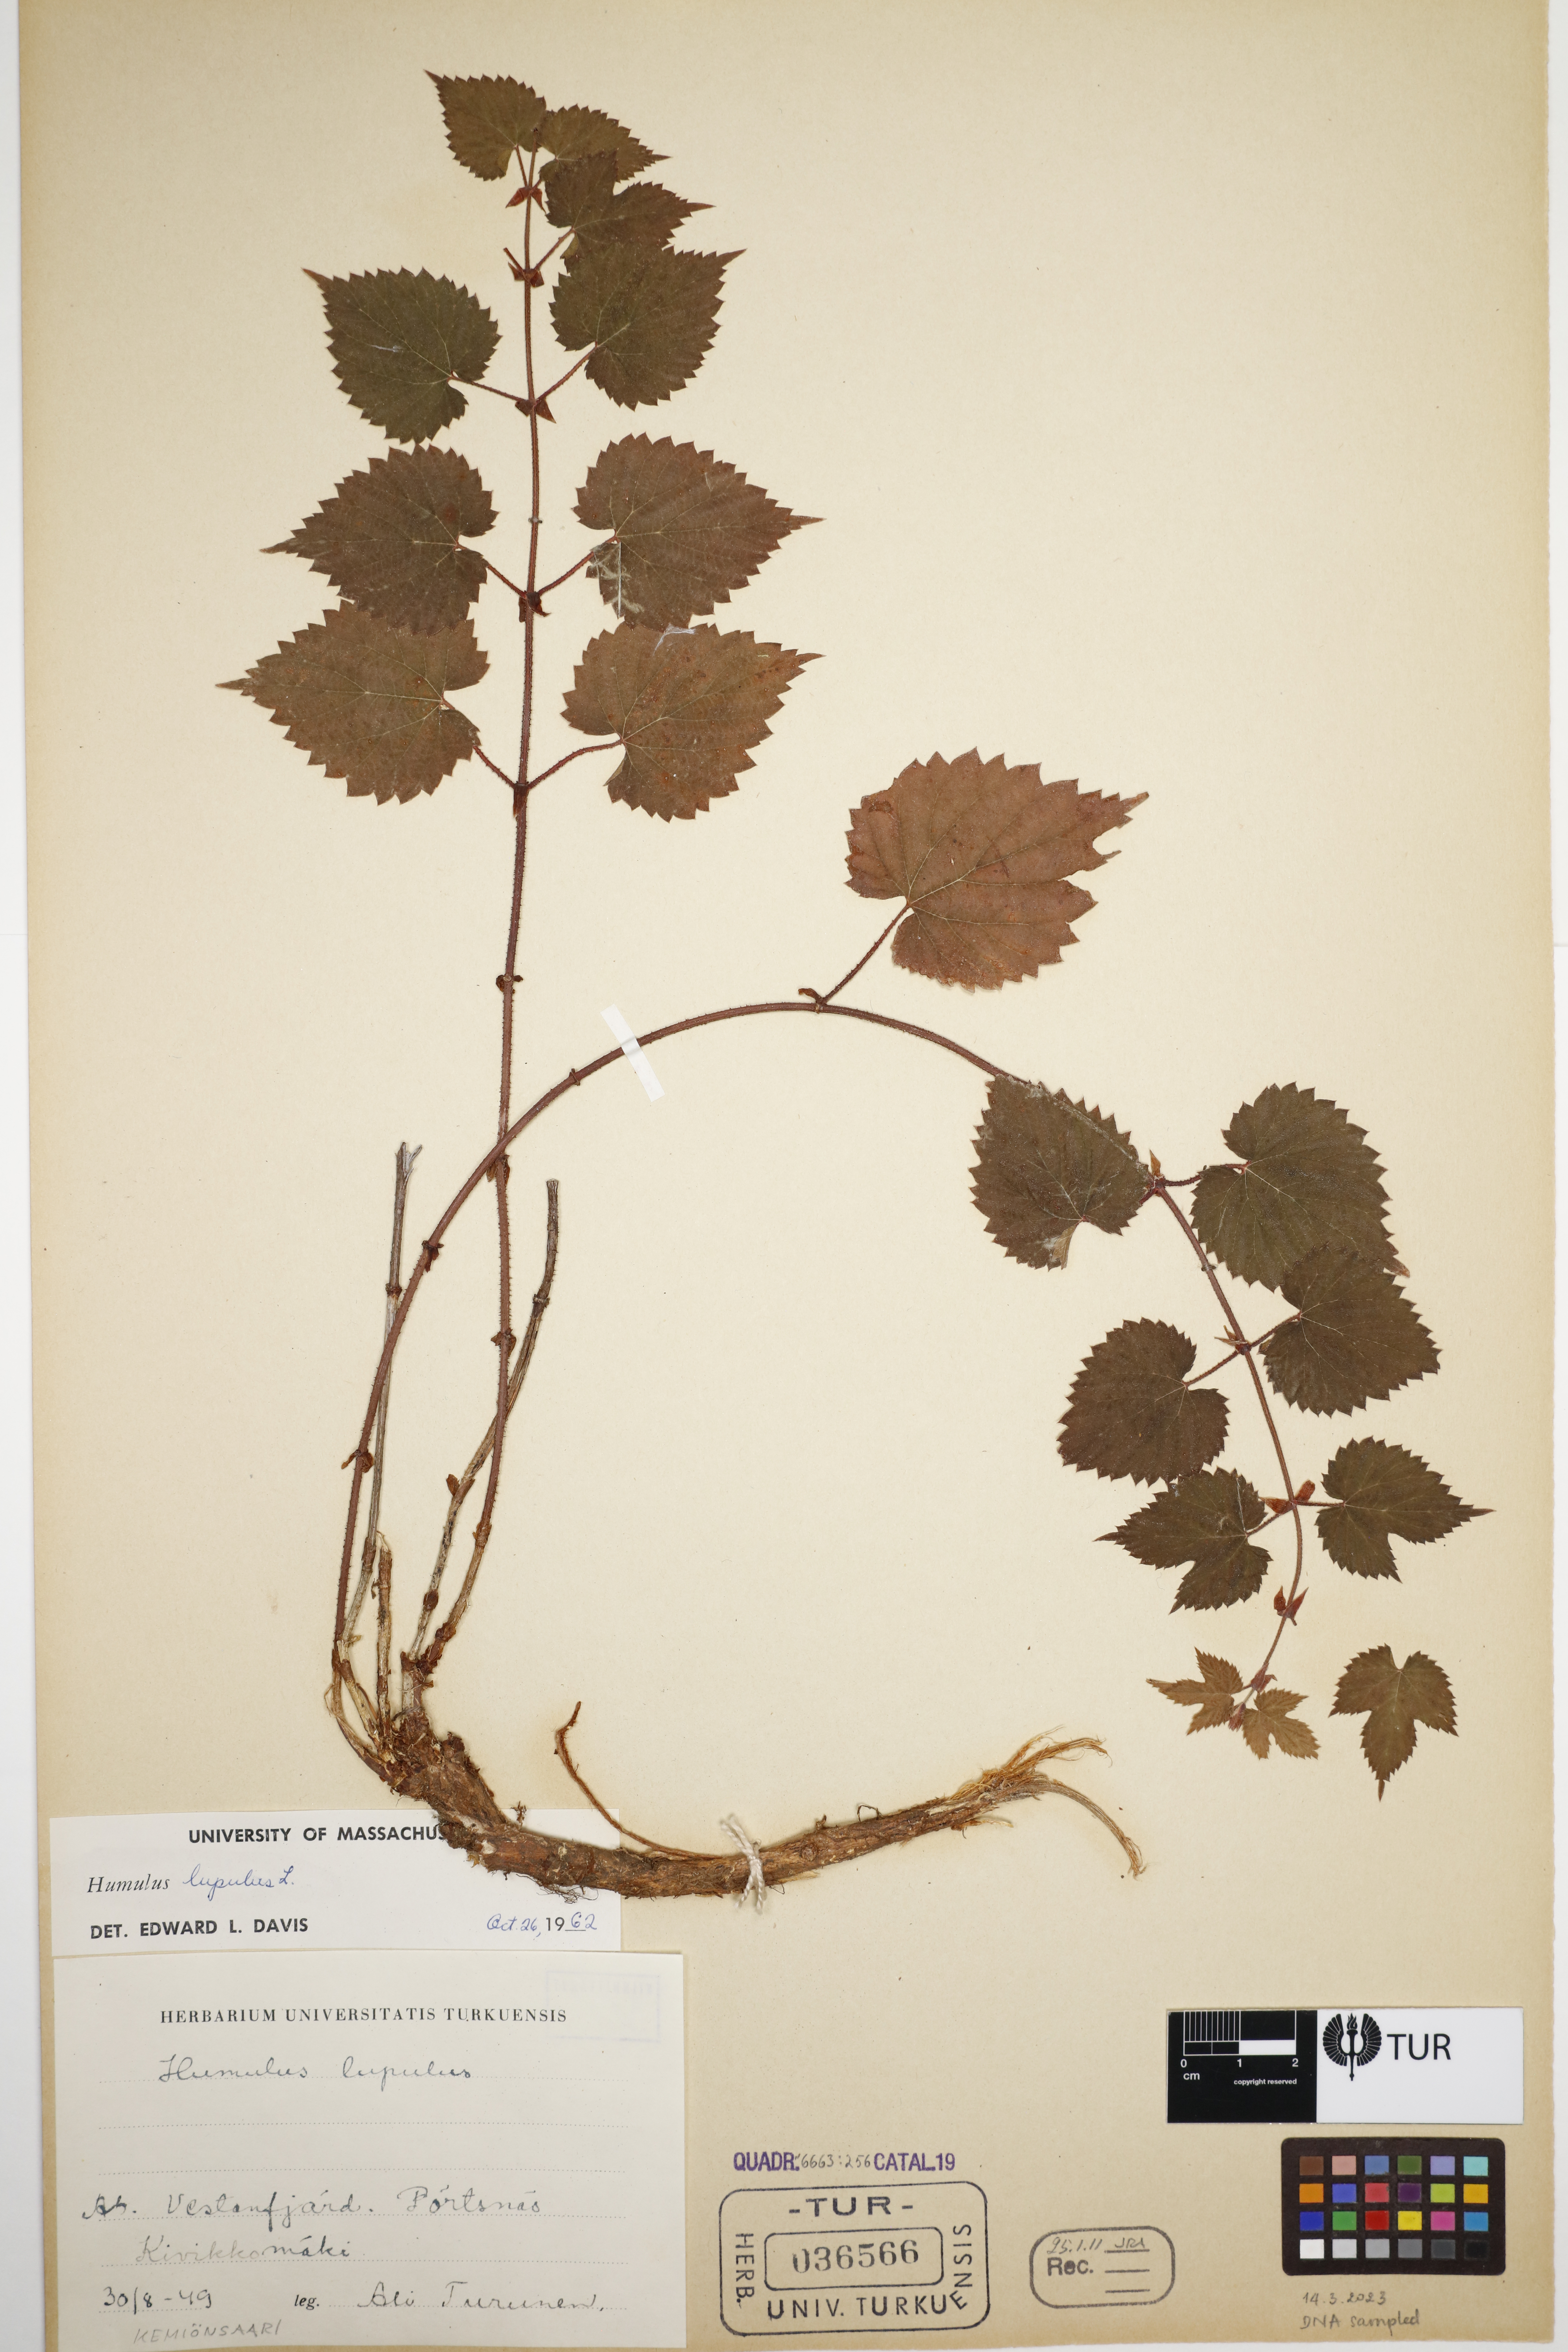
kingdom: Plantae
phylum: Tracheophyta
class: Magnoliopsida
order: Rosales
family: Cannabaceae
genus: Humulus
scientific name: Humulus lupulus
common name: Hop
